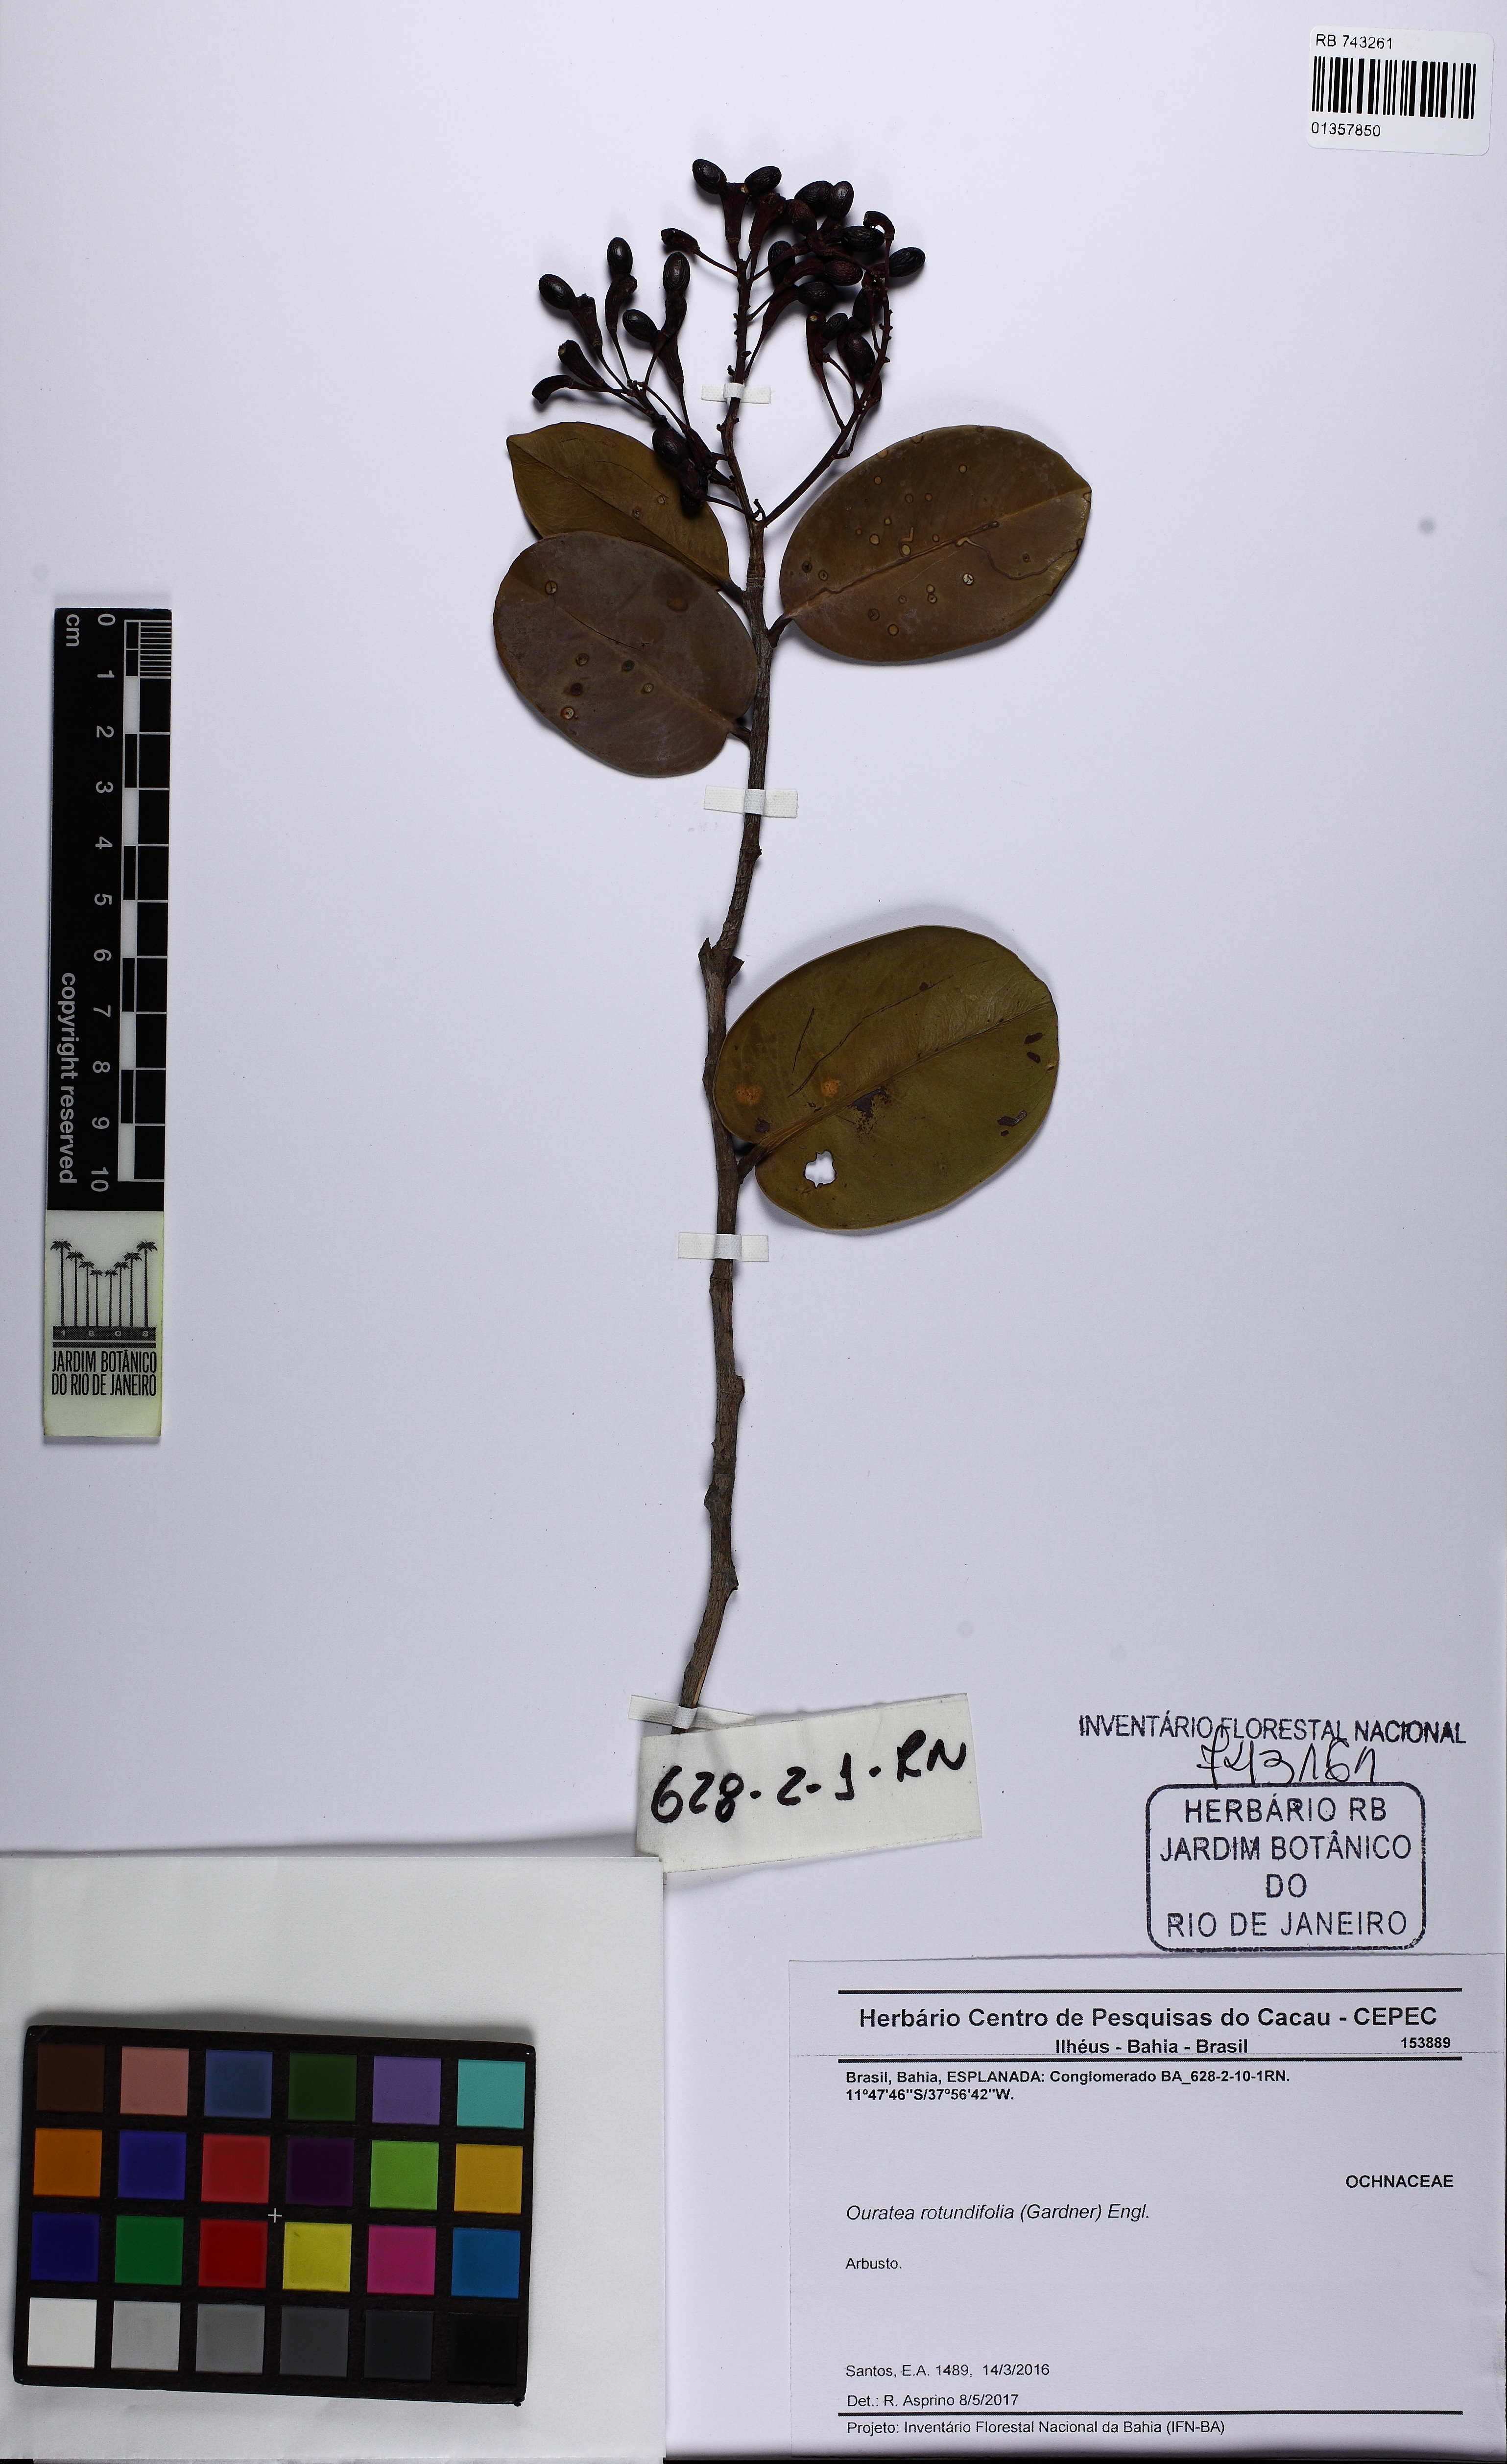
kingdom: Plantae
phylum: Tracheophyta
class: Magnoliopsida
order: Myrtales
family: Myrtaceae
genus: Eugenia
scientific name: Eugenia unana
